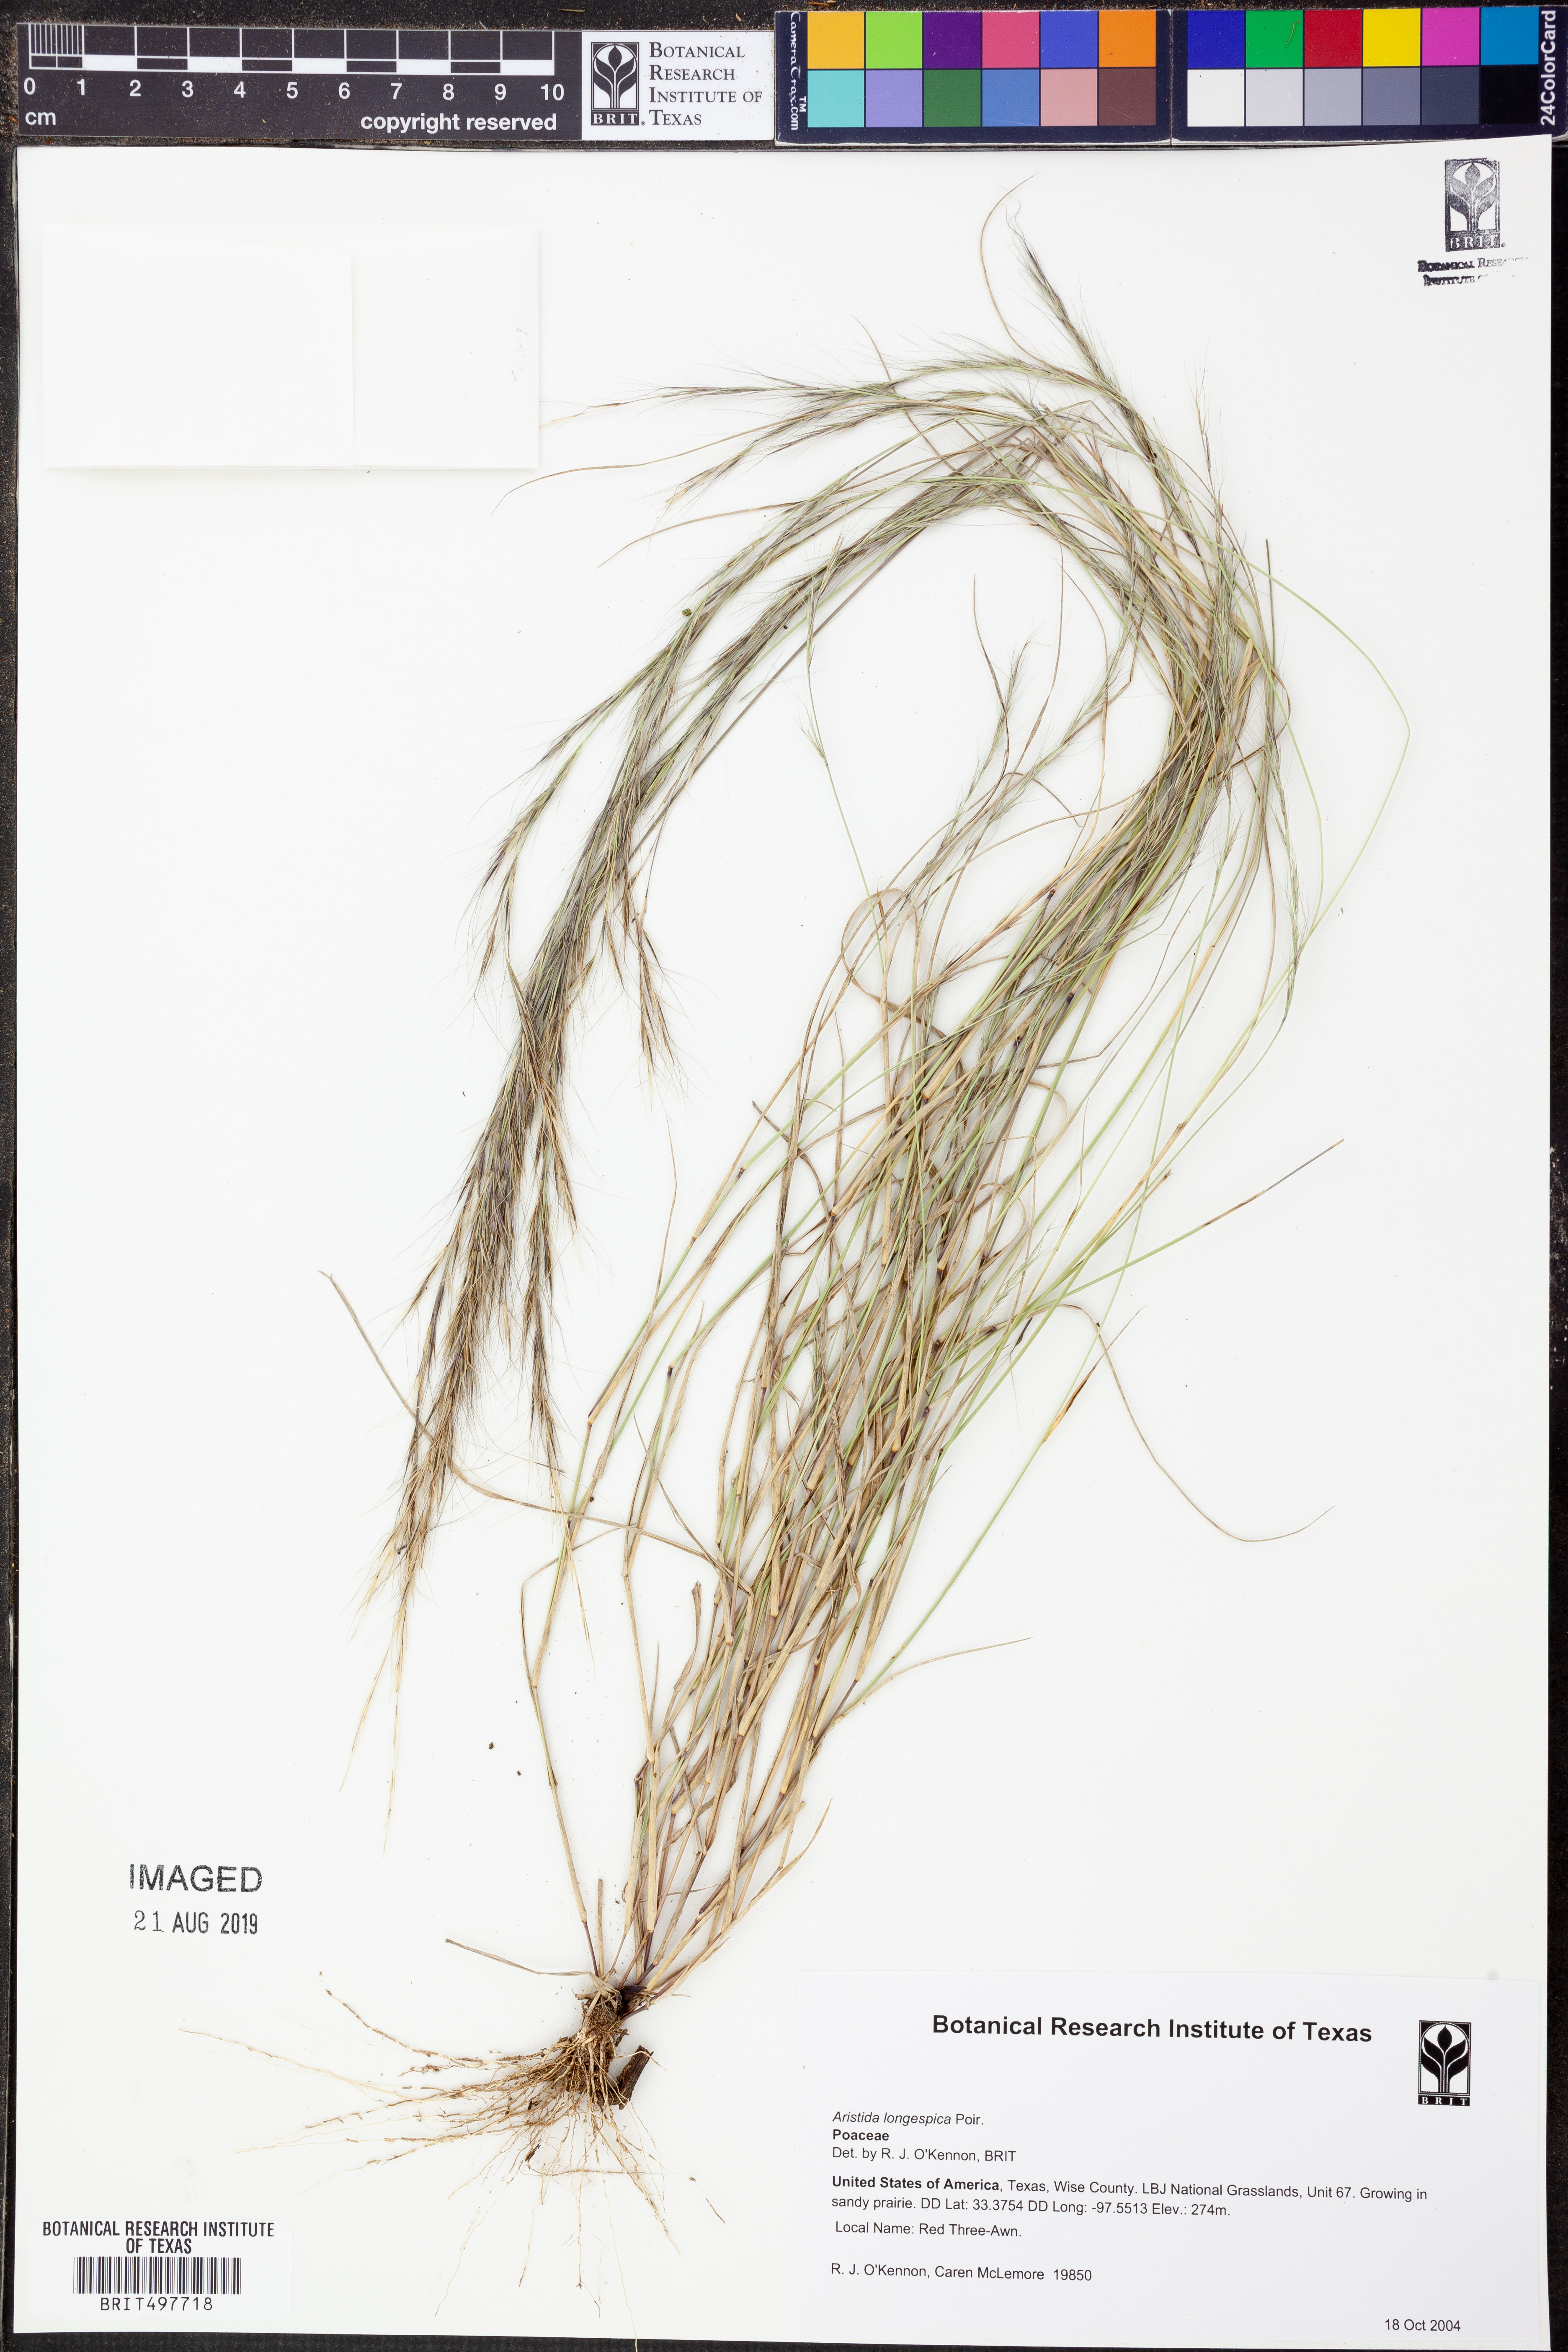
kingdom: Plantae
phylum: Tracheophyta
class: Liliopsida
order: Poales
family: Poaceae
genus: Aristida
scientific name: Aristida longespica
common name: Long-spiked triple-awned grass
